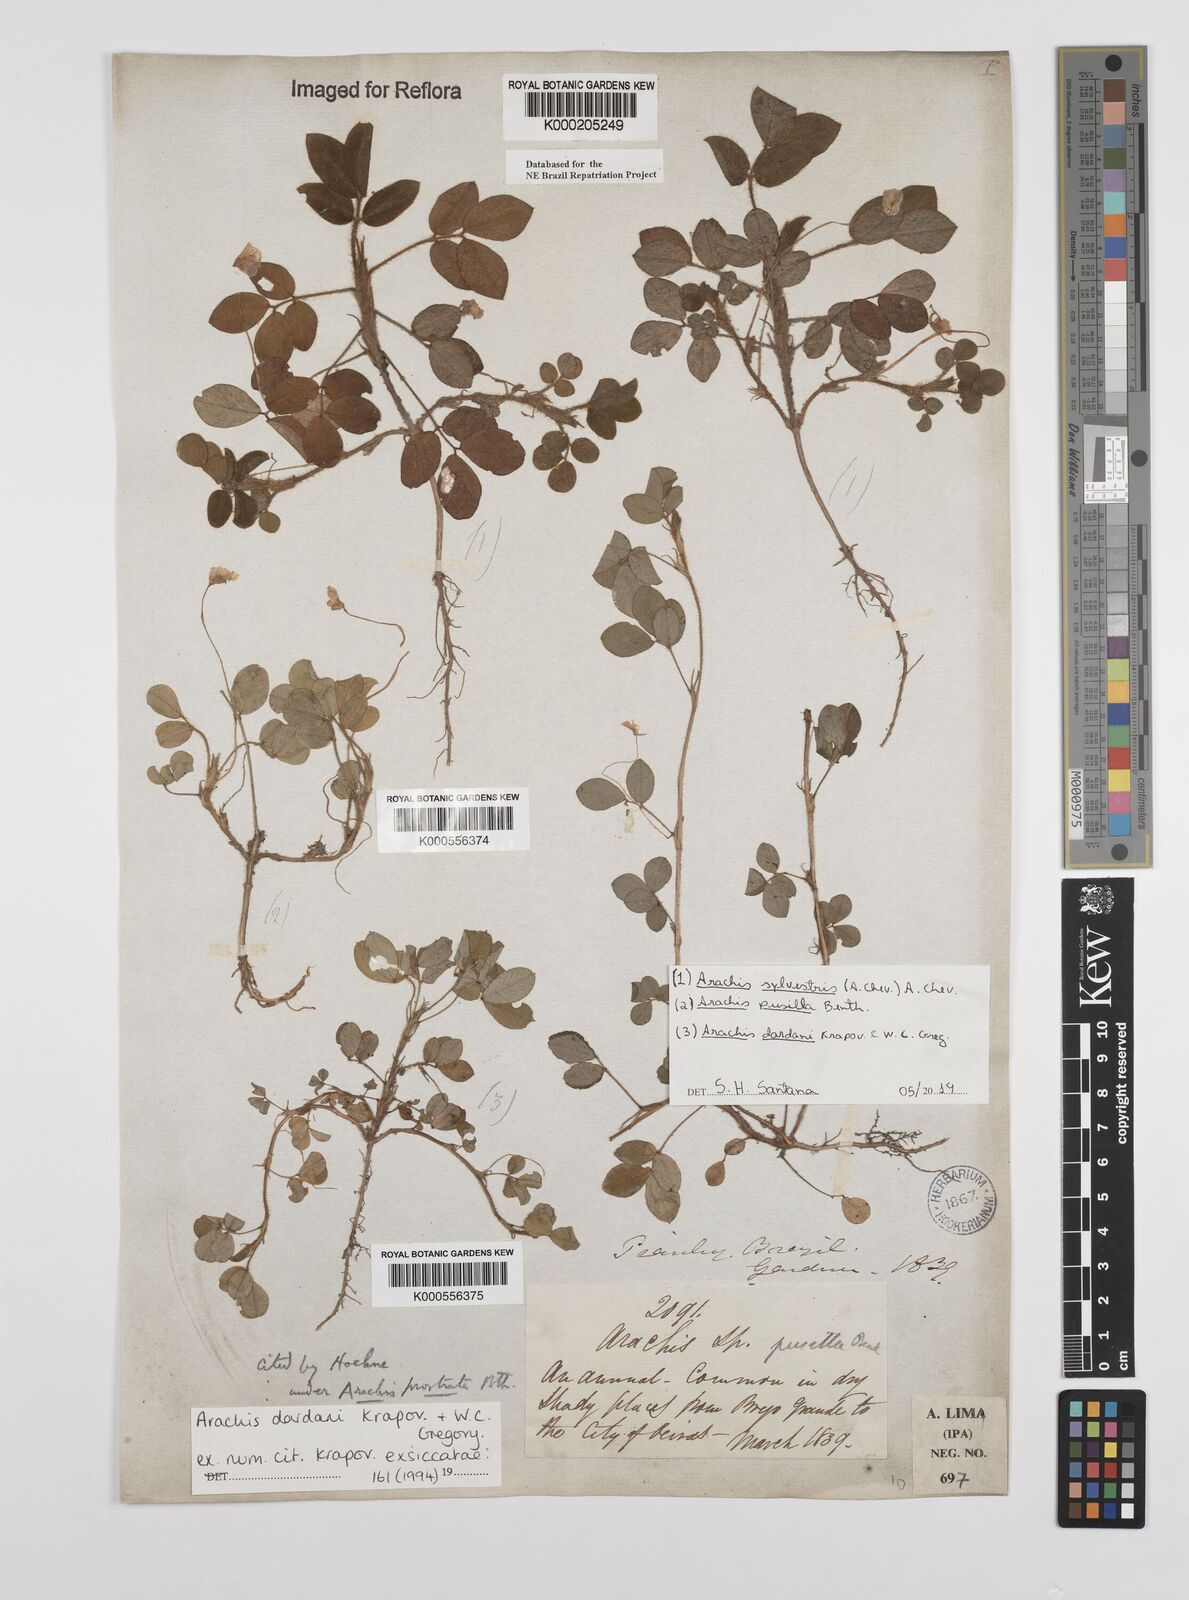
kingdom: Plantae
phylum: Tracheophyta
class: Magnoliopsida
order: Fabales
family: Fabaceae
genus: Arachis
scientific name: Arachis pusilla
